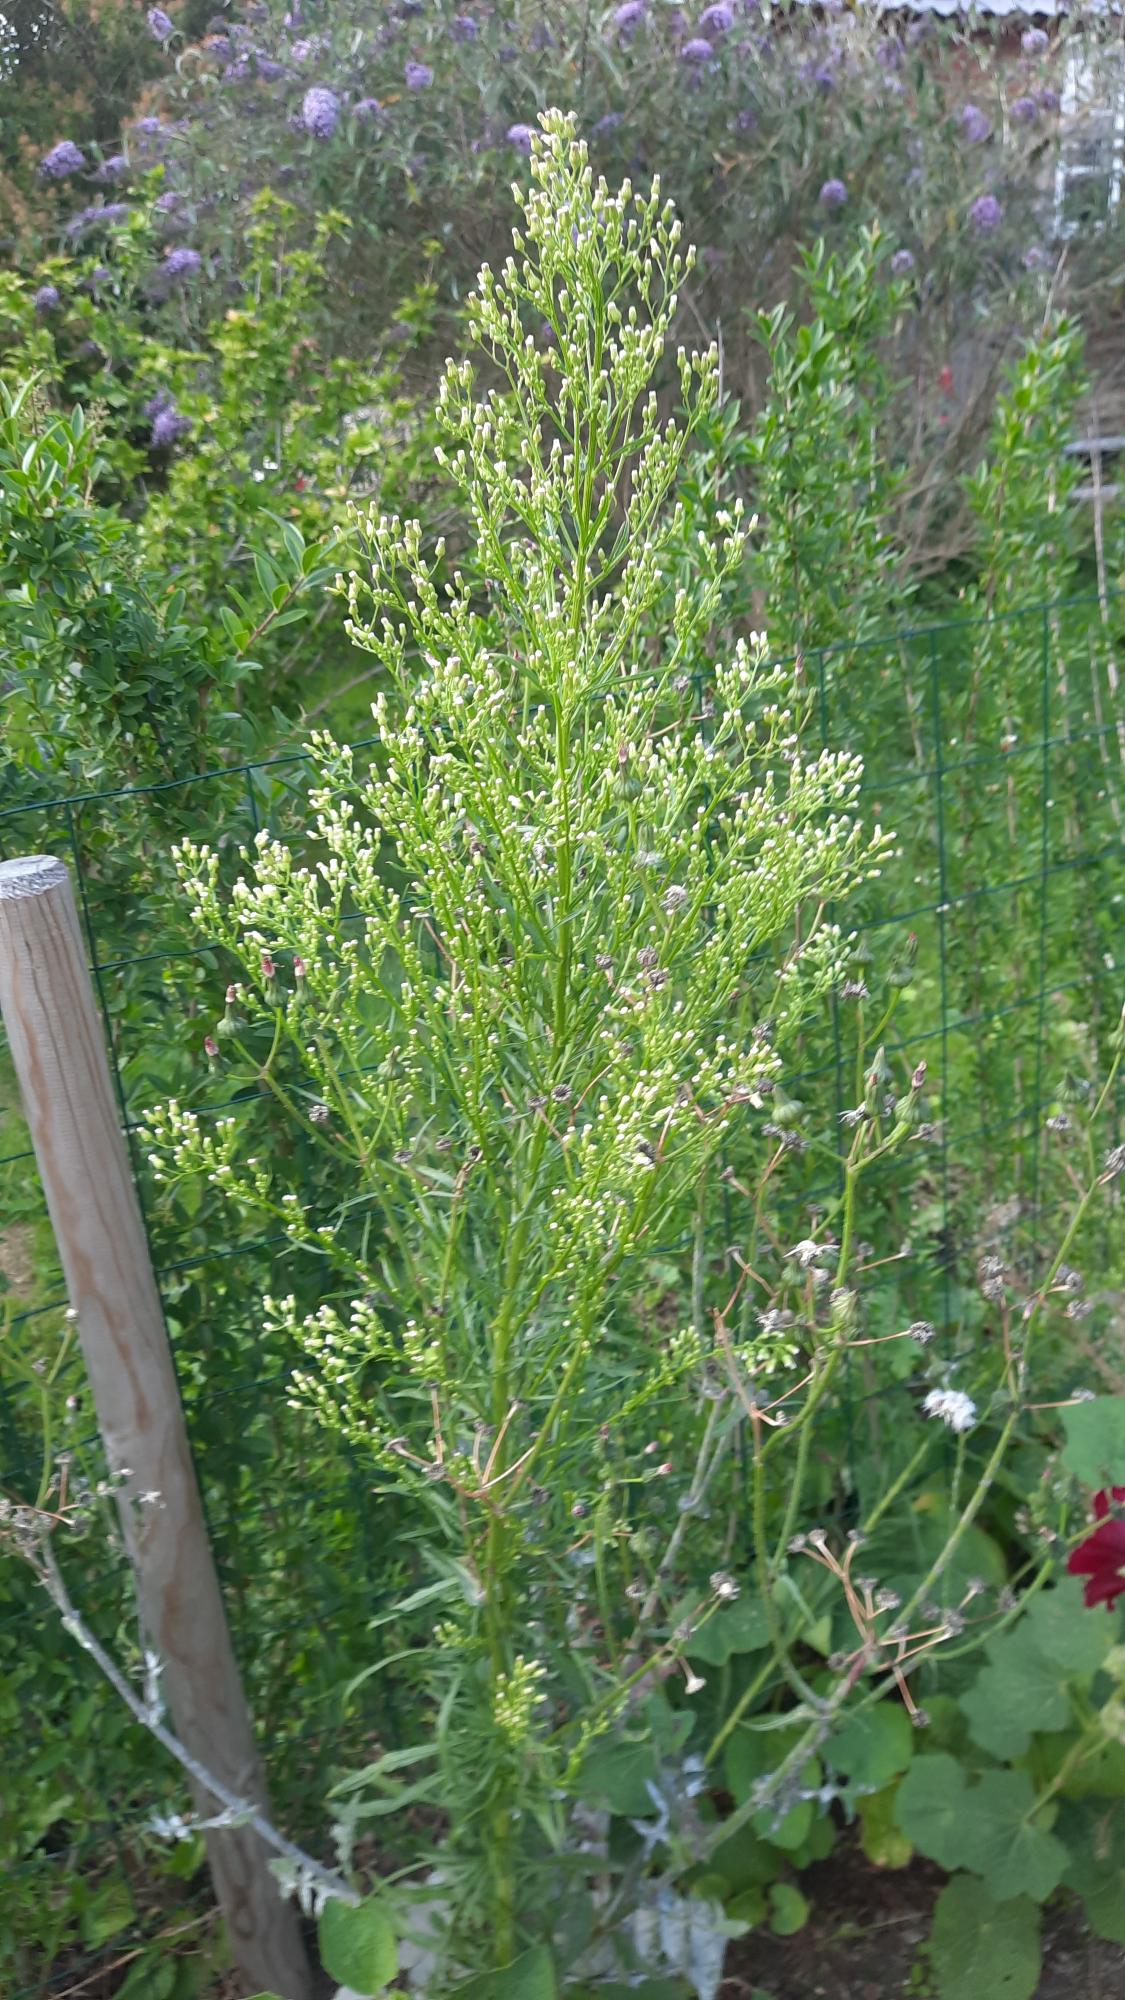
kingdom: Plantae
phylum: Tracheophyta
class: Magnoliopsida
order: Asterales
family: Asteraceae
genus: Erigeron
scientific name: Erigeron canadensis
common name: Kanadisk bakkestjerne
